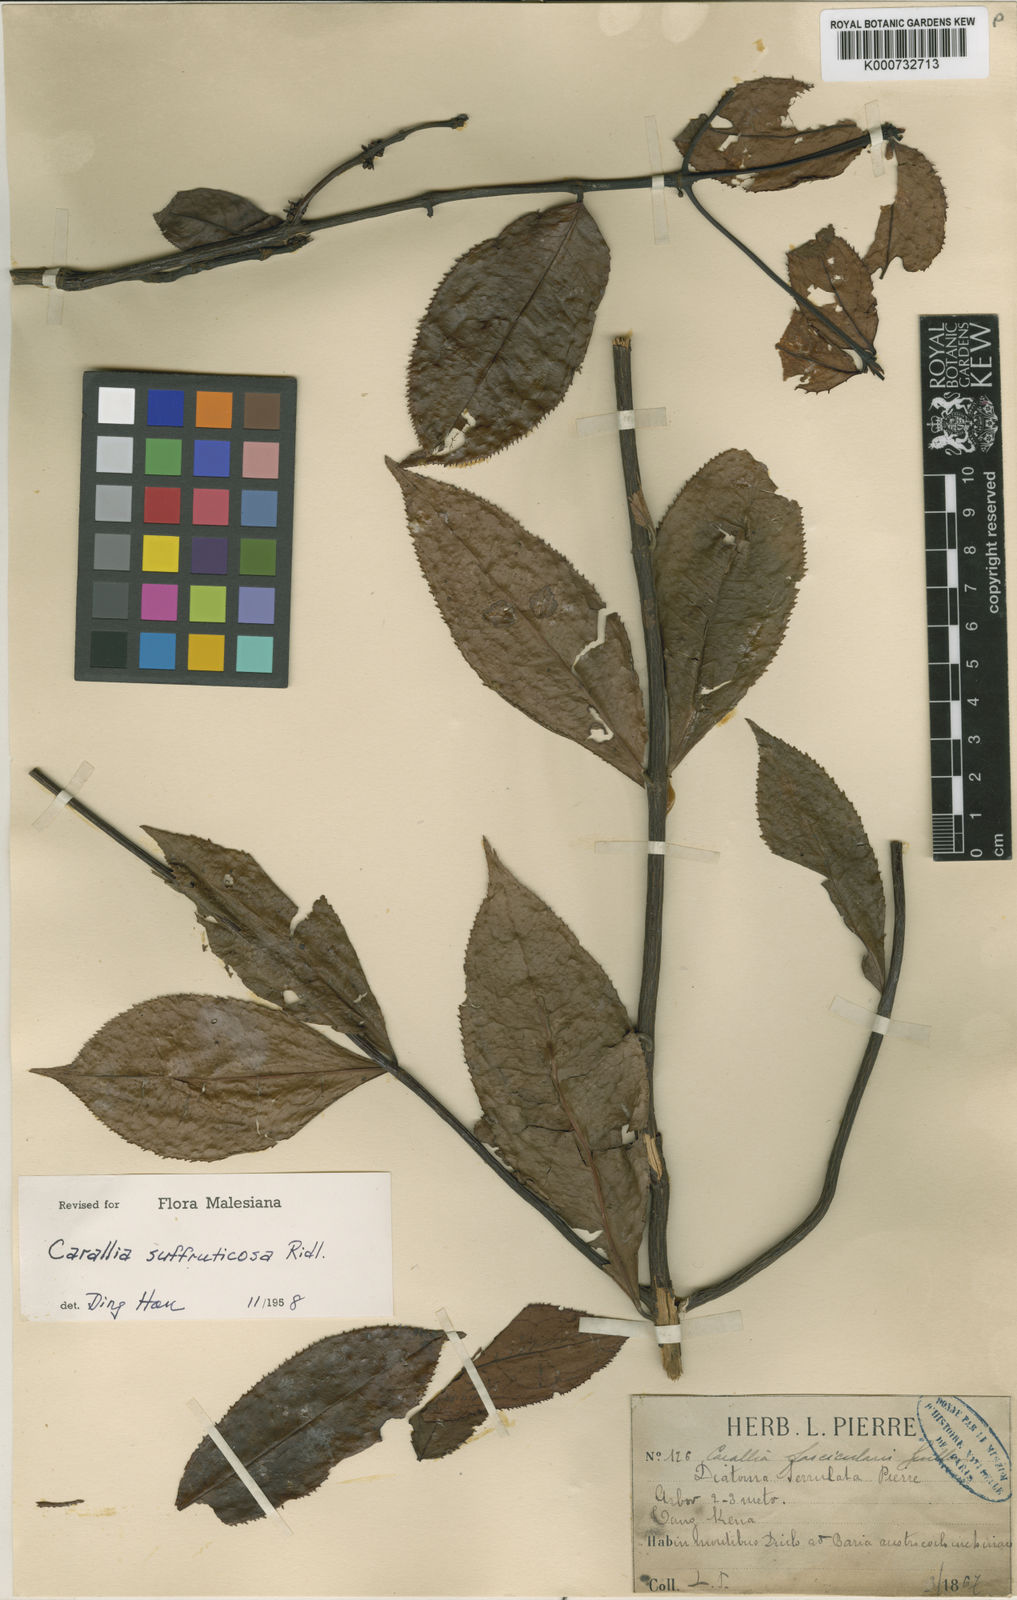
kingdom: Plantae
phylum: Tracheophyta
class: Magnoliopsida
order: Malpighiales
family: Rhizophoraceae
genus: Carallia
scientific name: Carallia suffruticosa
